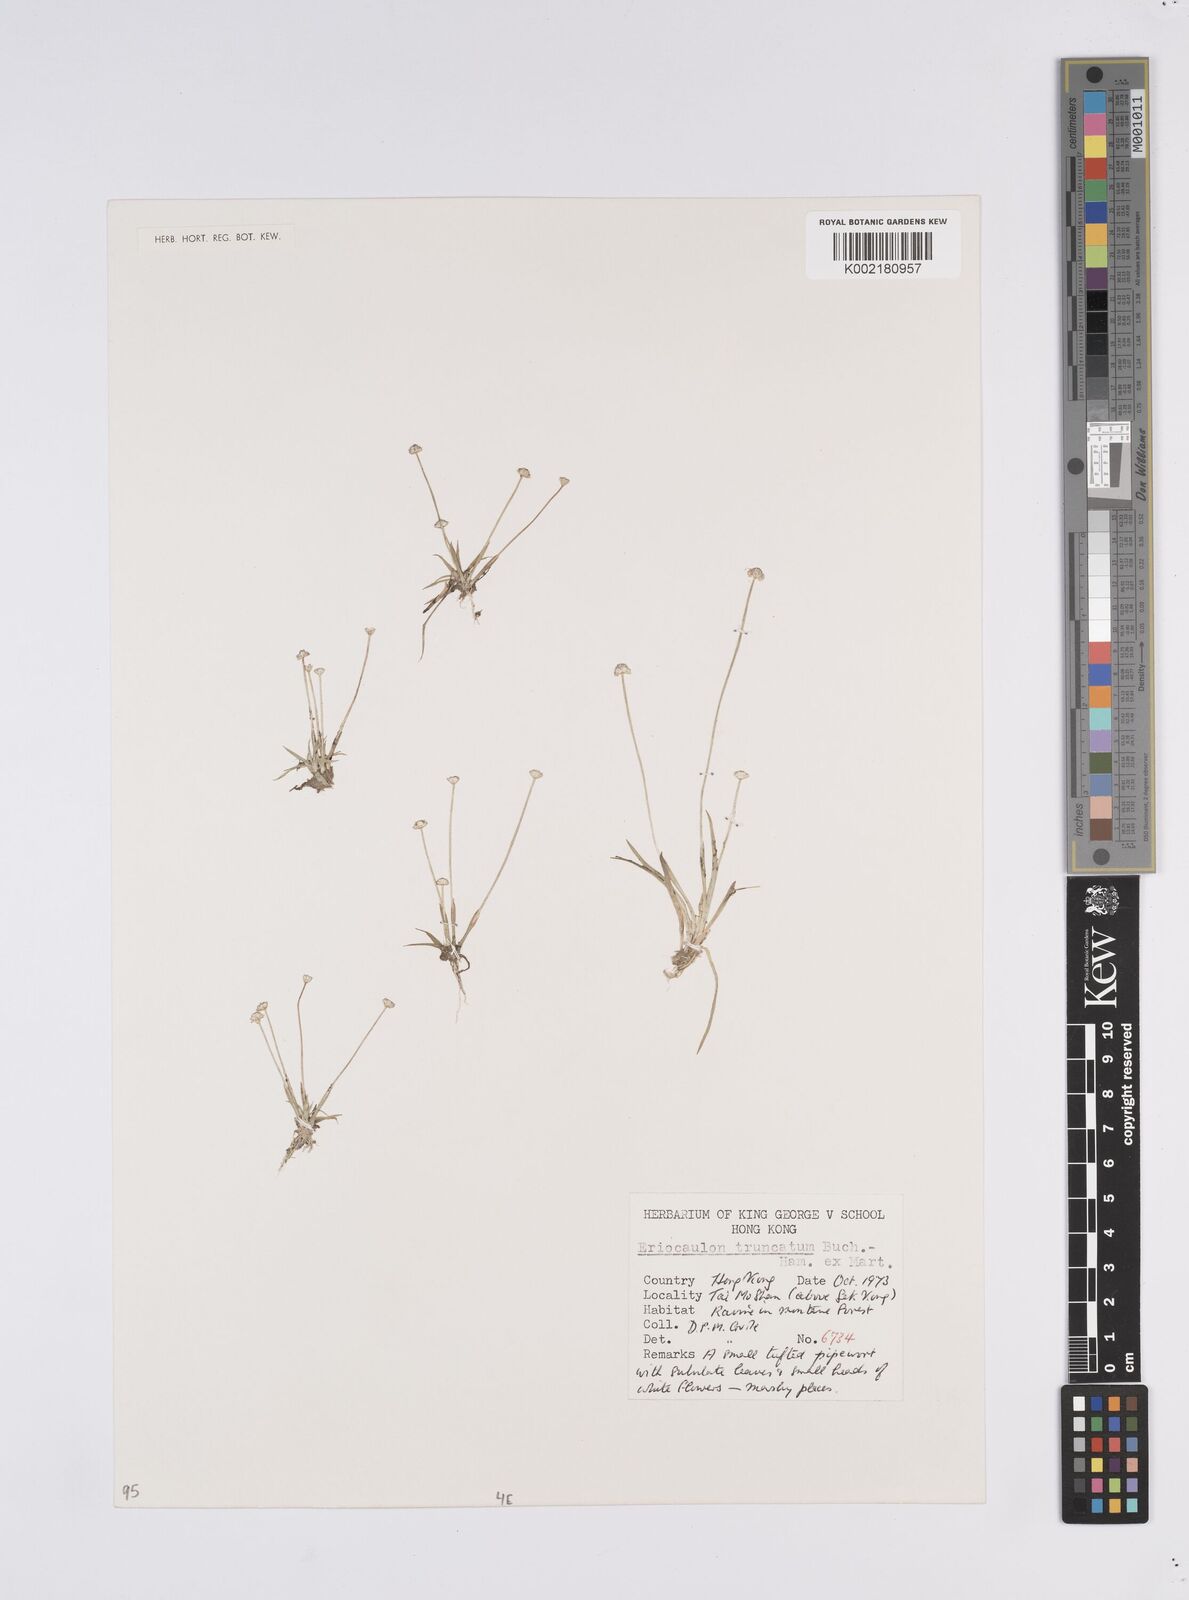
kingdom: Plantae
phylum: Tracheophyta
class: Liliopsida
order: Poales
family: Eriocaulaceae
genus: Eriocaulon
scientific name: Eriocaulon australe
